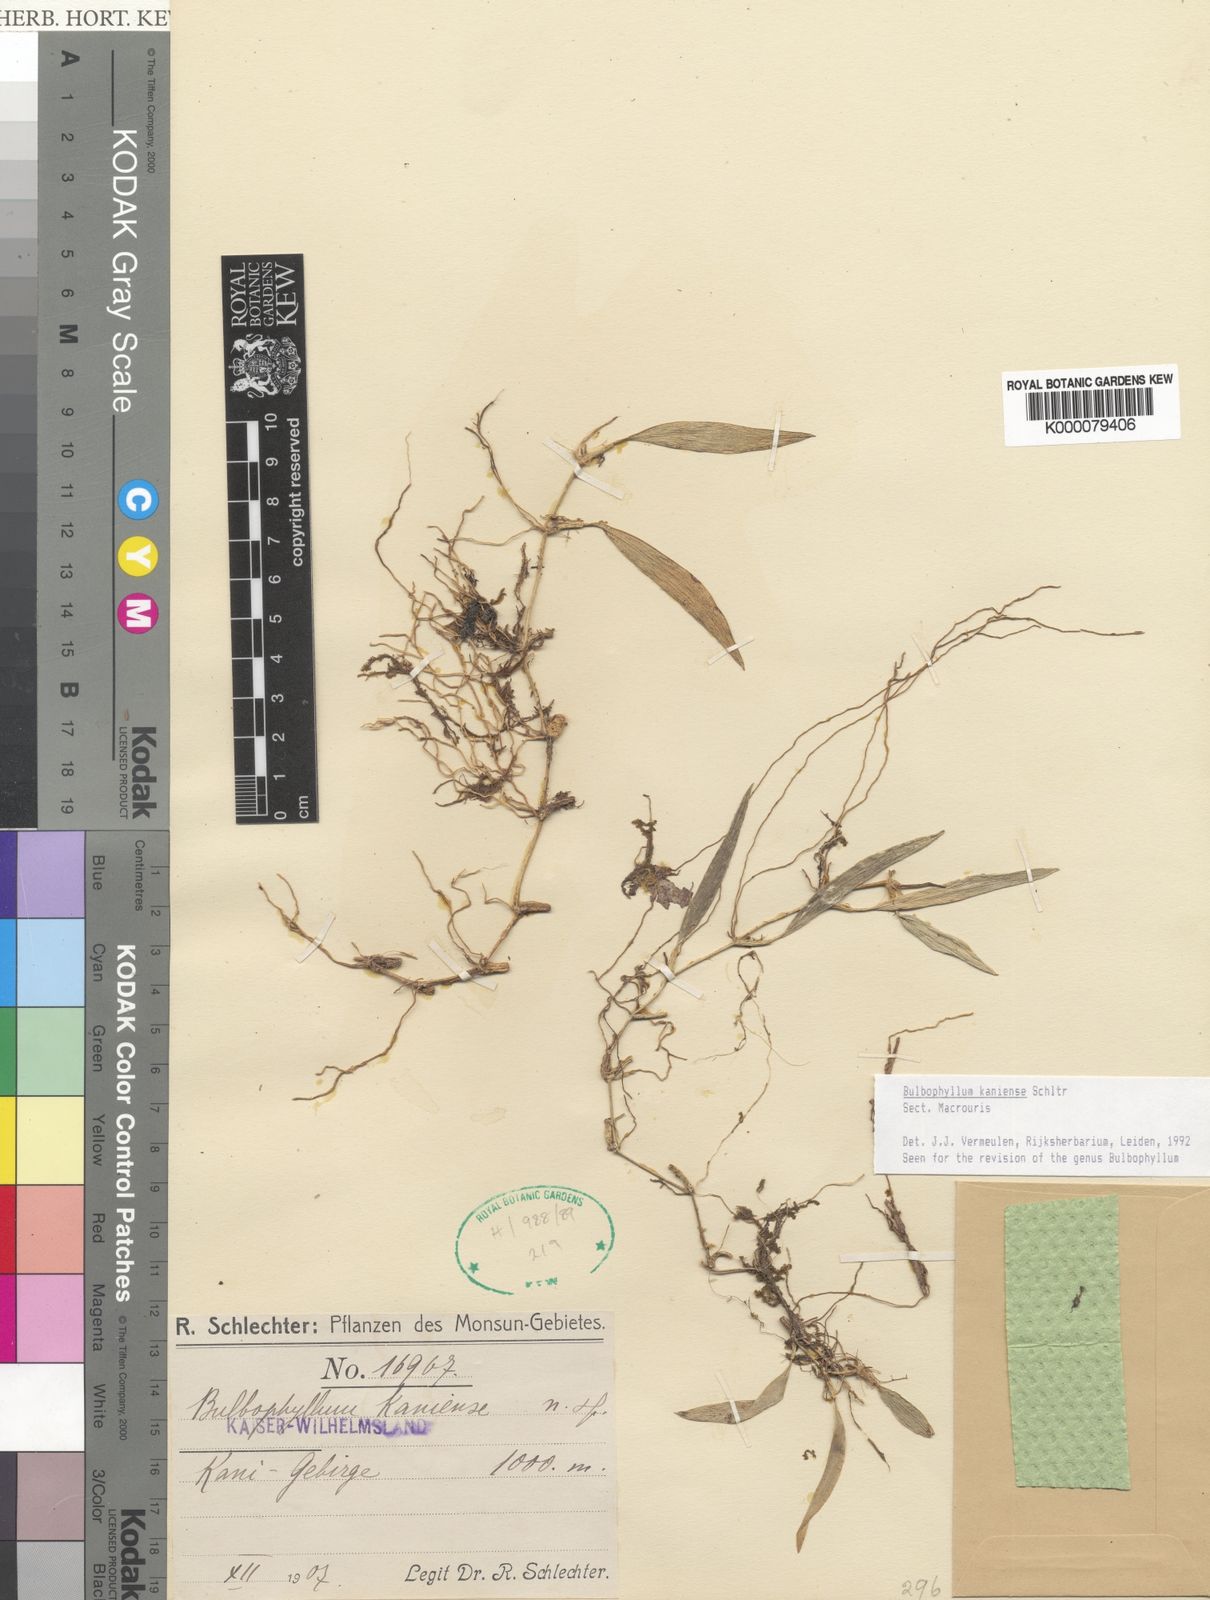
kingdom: Plantae
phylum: Tracheophyta
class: Liliopsida
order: Asparagales
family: Orchidaceae
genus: Bulbophyllum
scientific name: Bulbophyllum
